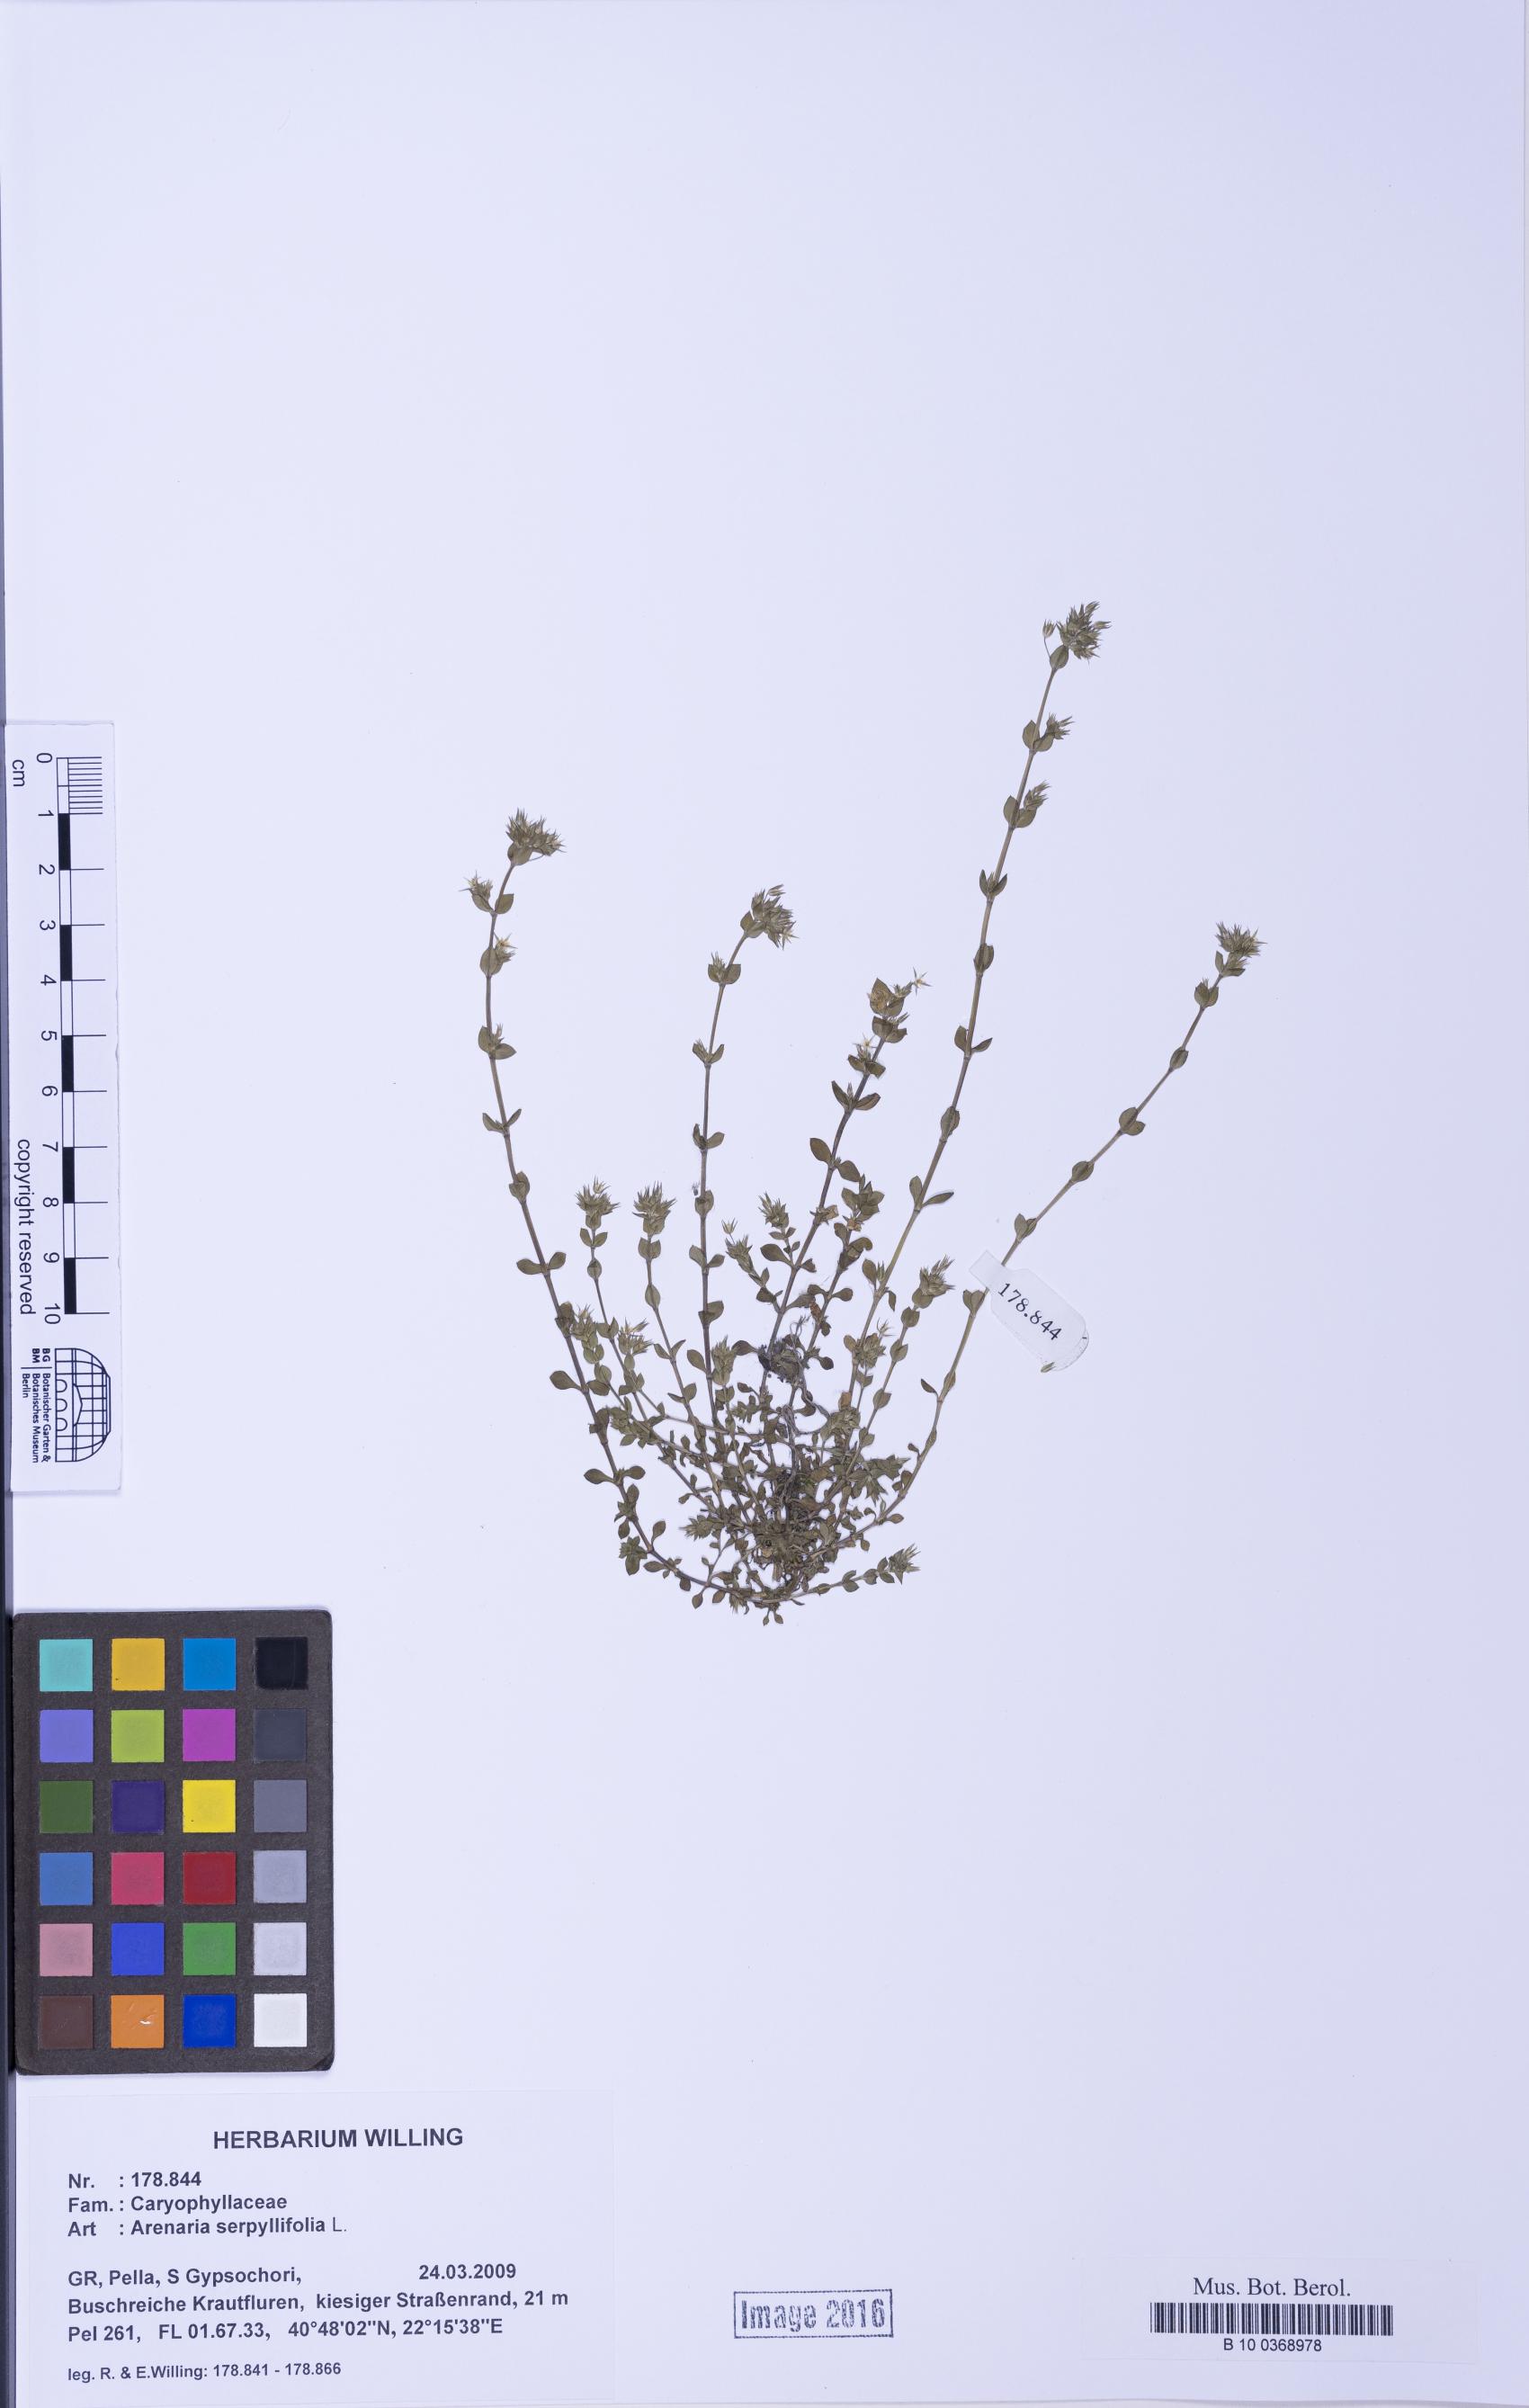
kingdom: Plantae
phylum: Tracheophyta
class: Magnoliopsida
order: Caryophyllales
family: Caryophyllaceae
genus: Arenaria
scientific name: Arenaria serpyllifolia
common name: Thyme-leaved sandwort
